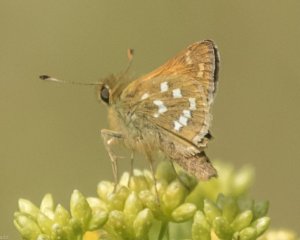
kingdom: Animalia
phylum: Arthropoda
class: Insecta
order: Lepidoptera
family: Hesperiidae
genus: Hesperia
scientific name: Hesperia comma
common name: Common Branded Skipper
